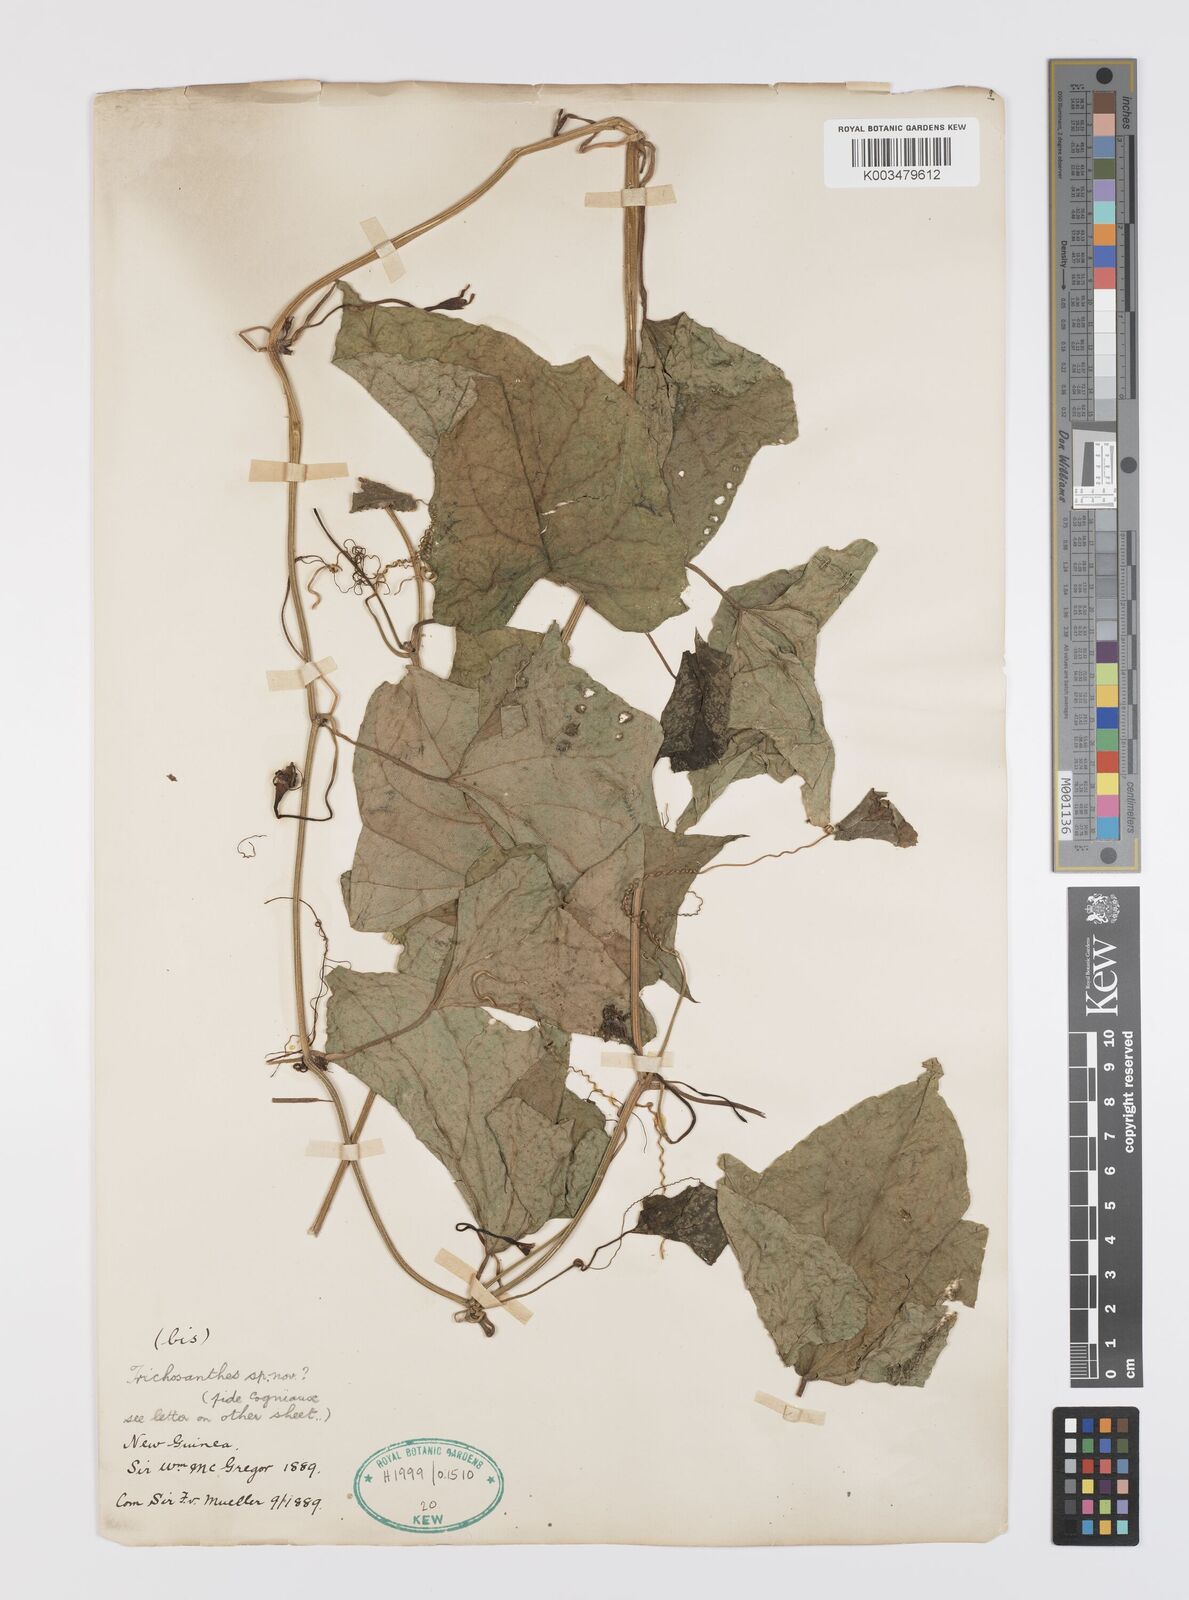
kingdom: Plantae
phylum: Tracheophyta
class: Magnoliopsida
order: Cucurbitales
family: Cucurbitaceae
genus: Trichosanthes
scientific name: Trichosanthes
